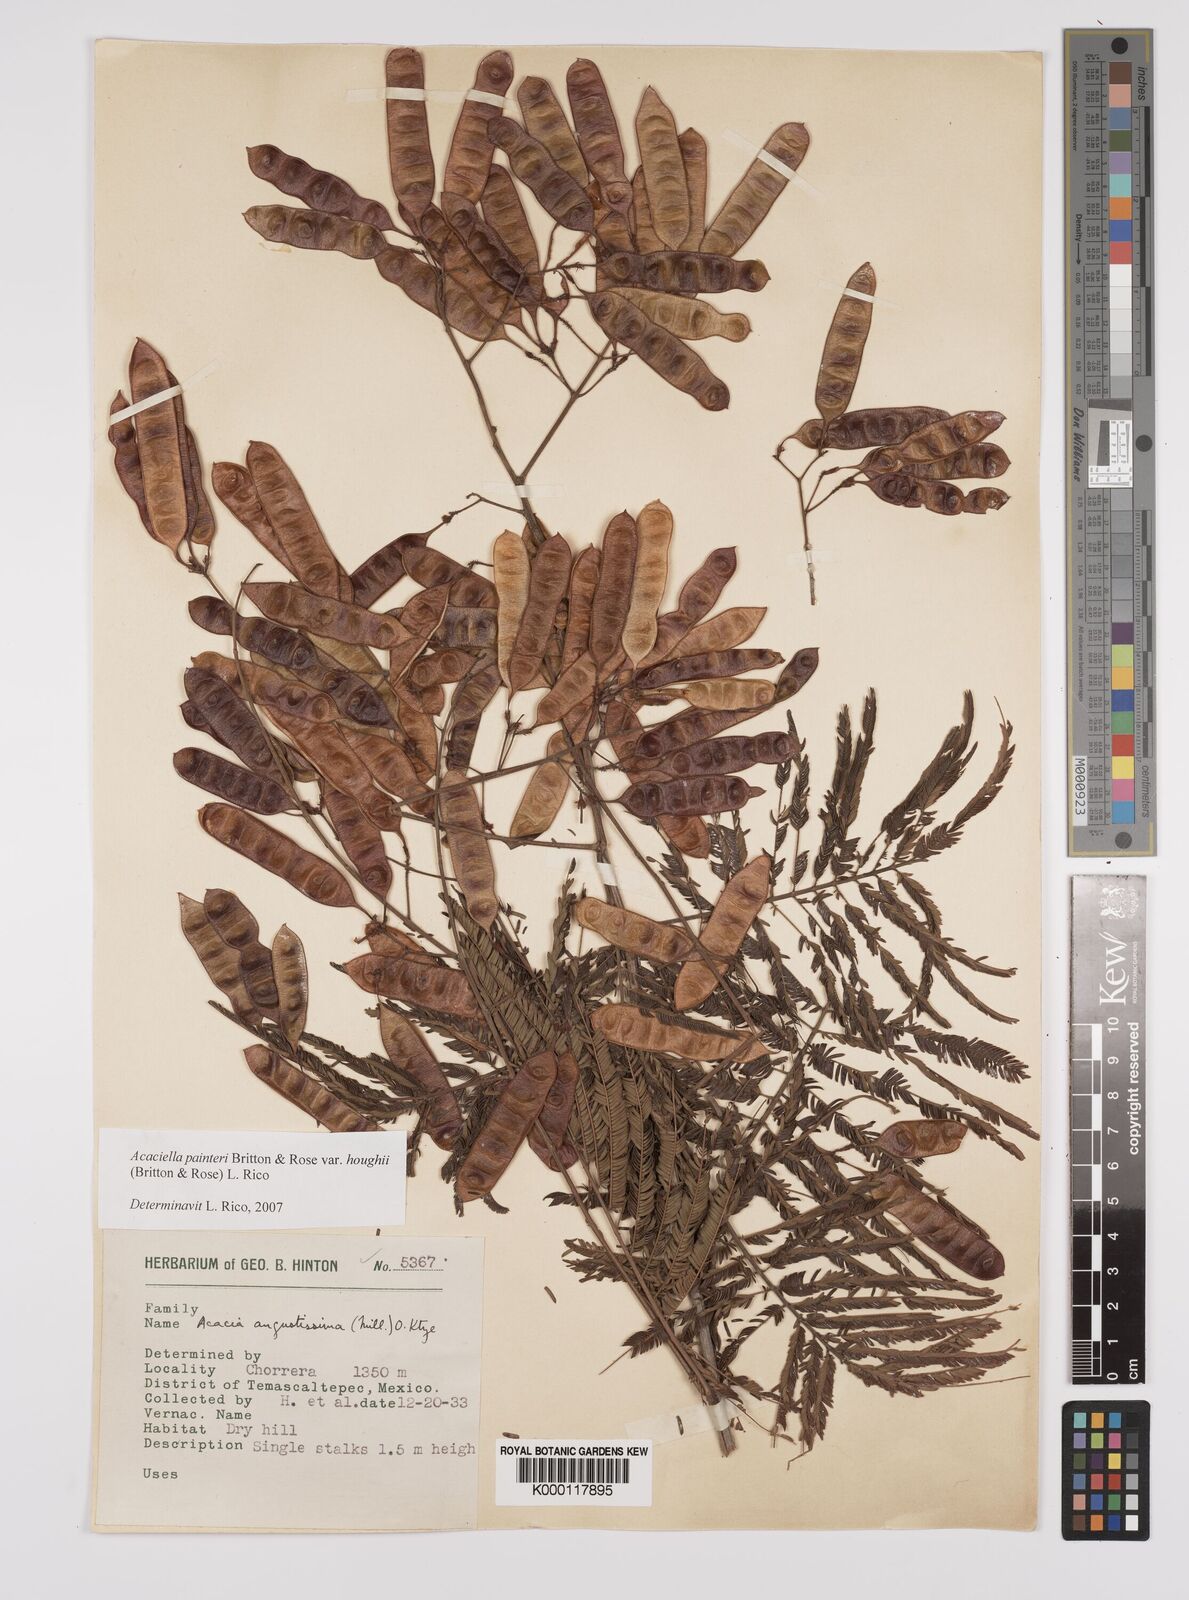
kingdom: Plantae
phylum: Tracheophyta
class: Magnoliopsida
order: Fabales
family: Fabaceae
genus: Acaciella
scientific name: Acaciella painteri
